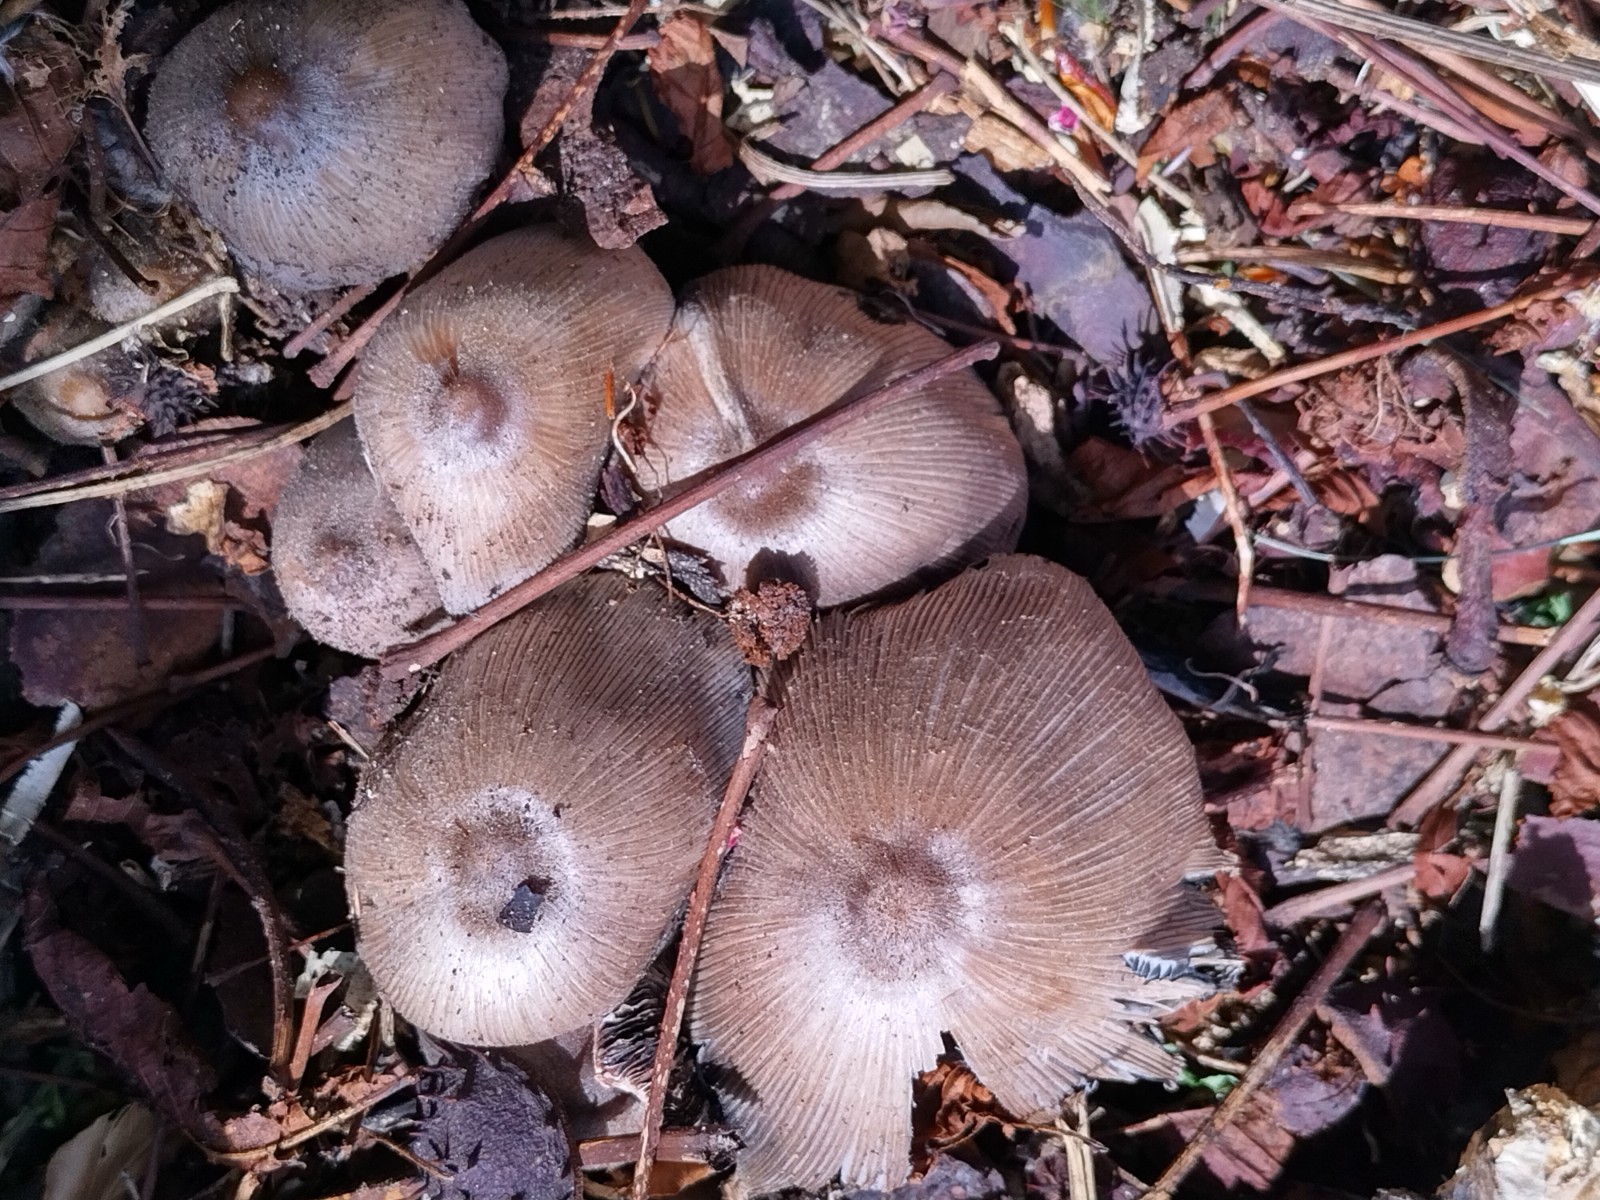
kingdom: Fungi
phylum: Basidiomycota
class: Agaricomycetes
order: Agaricales
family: Psathyrellaceae
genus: Coprinopsis
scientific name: Coprinopsis
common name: blækhat
